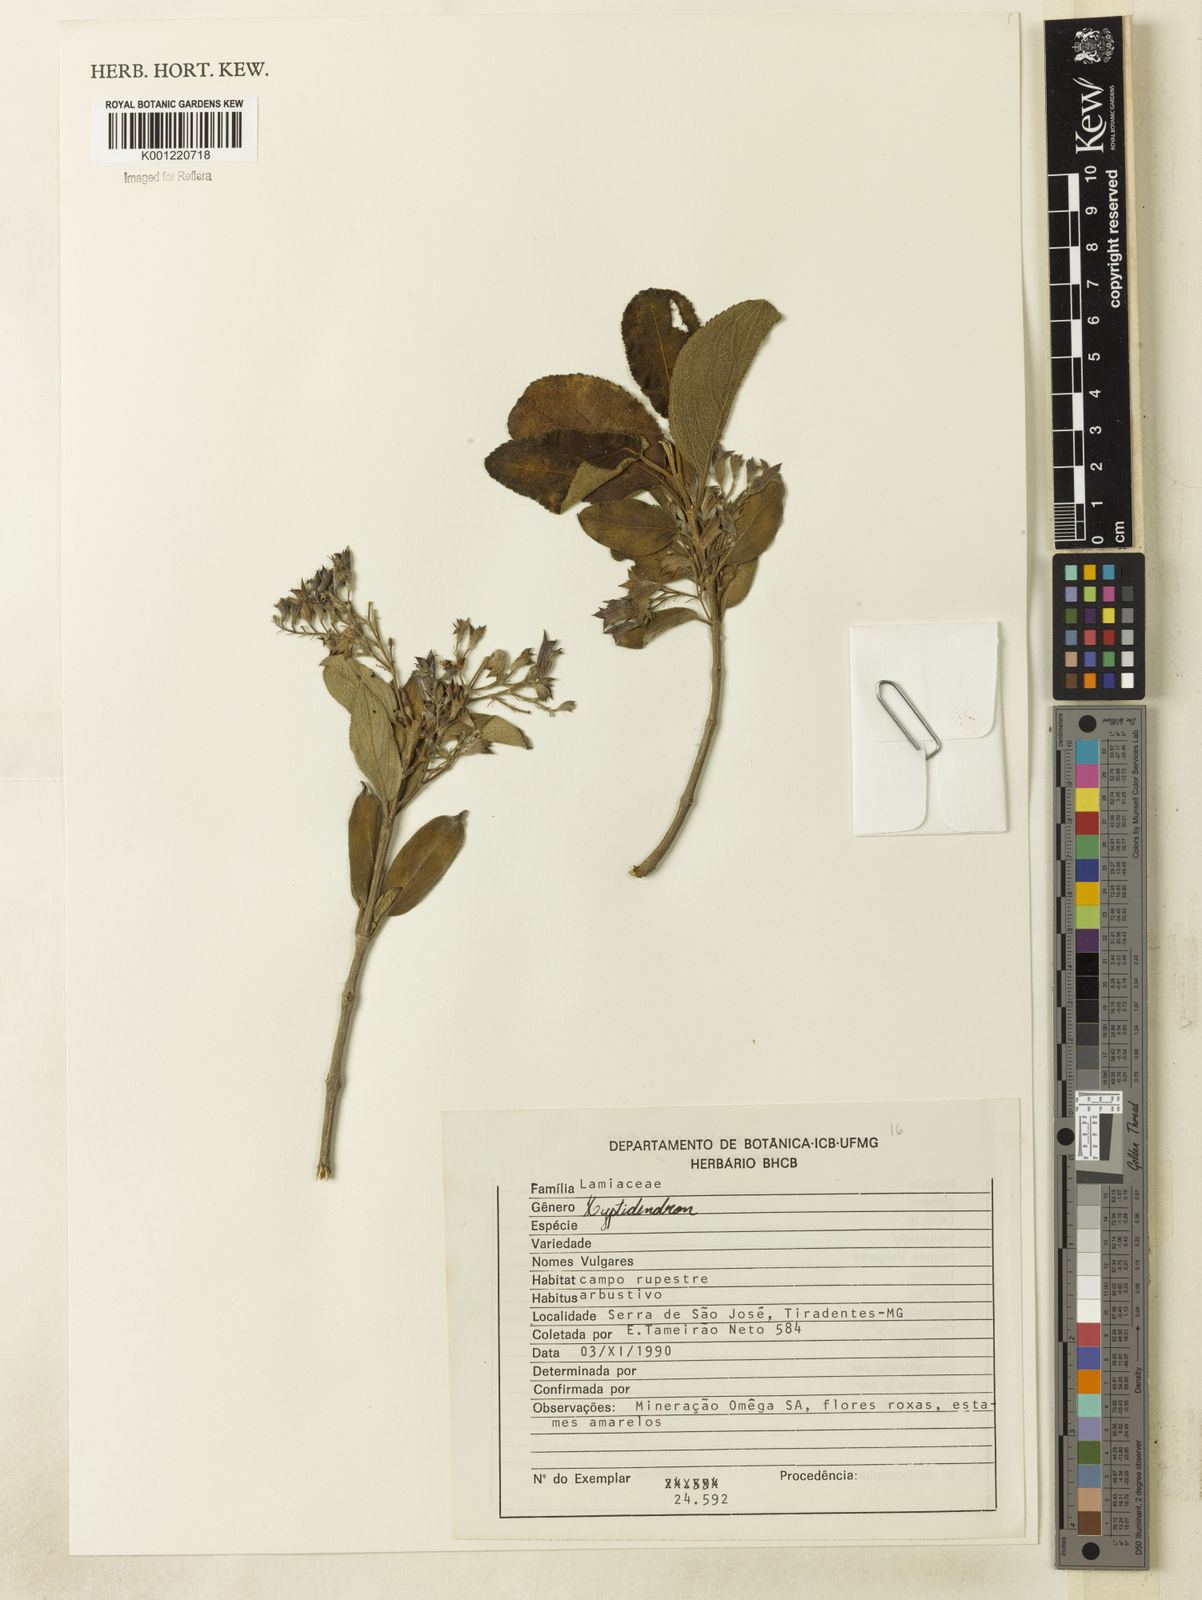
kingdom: Plantae
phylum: Tracheophyta
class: Magnoliopsida
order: Lamiales
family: Lamiaceae
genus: Hyptidendron
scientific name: Hyptidendron
